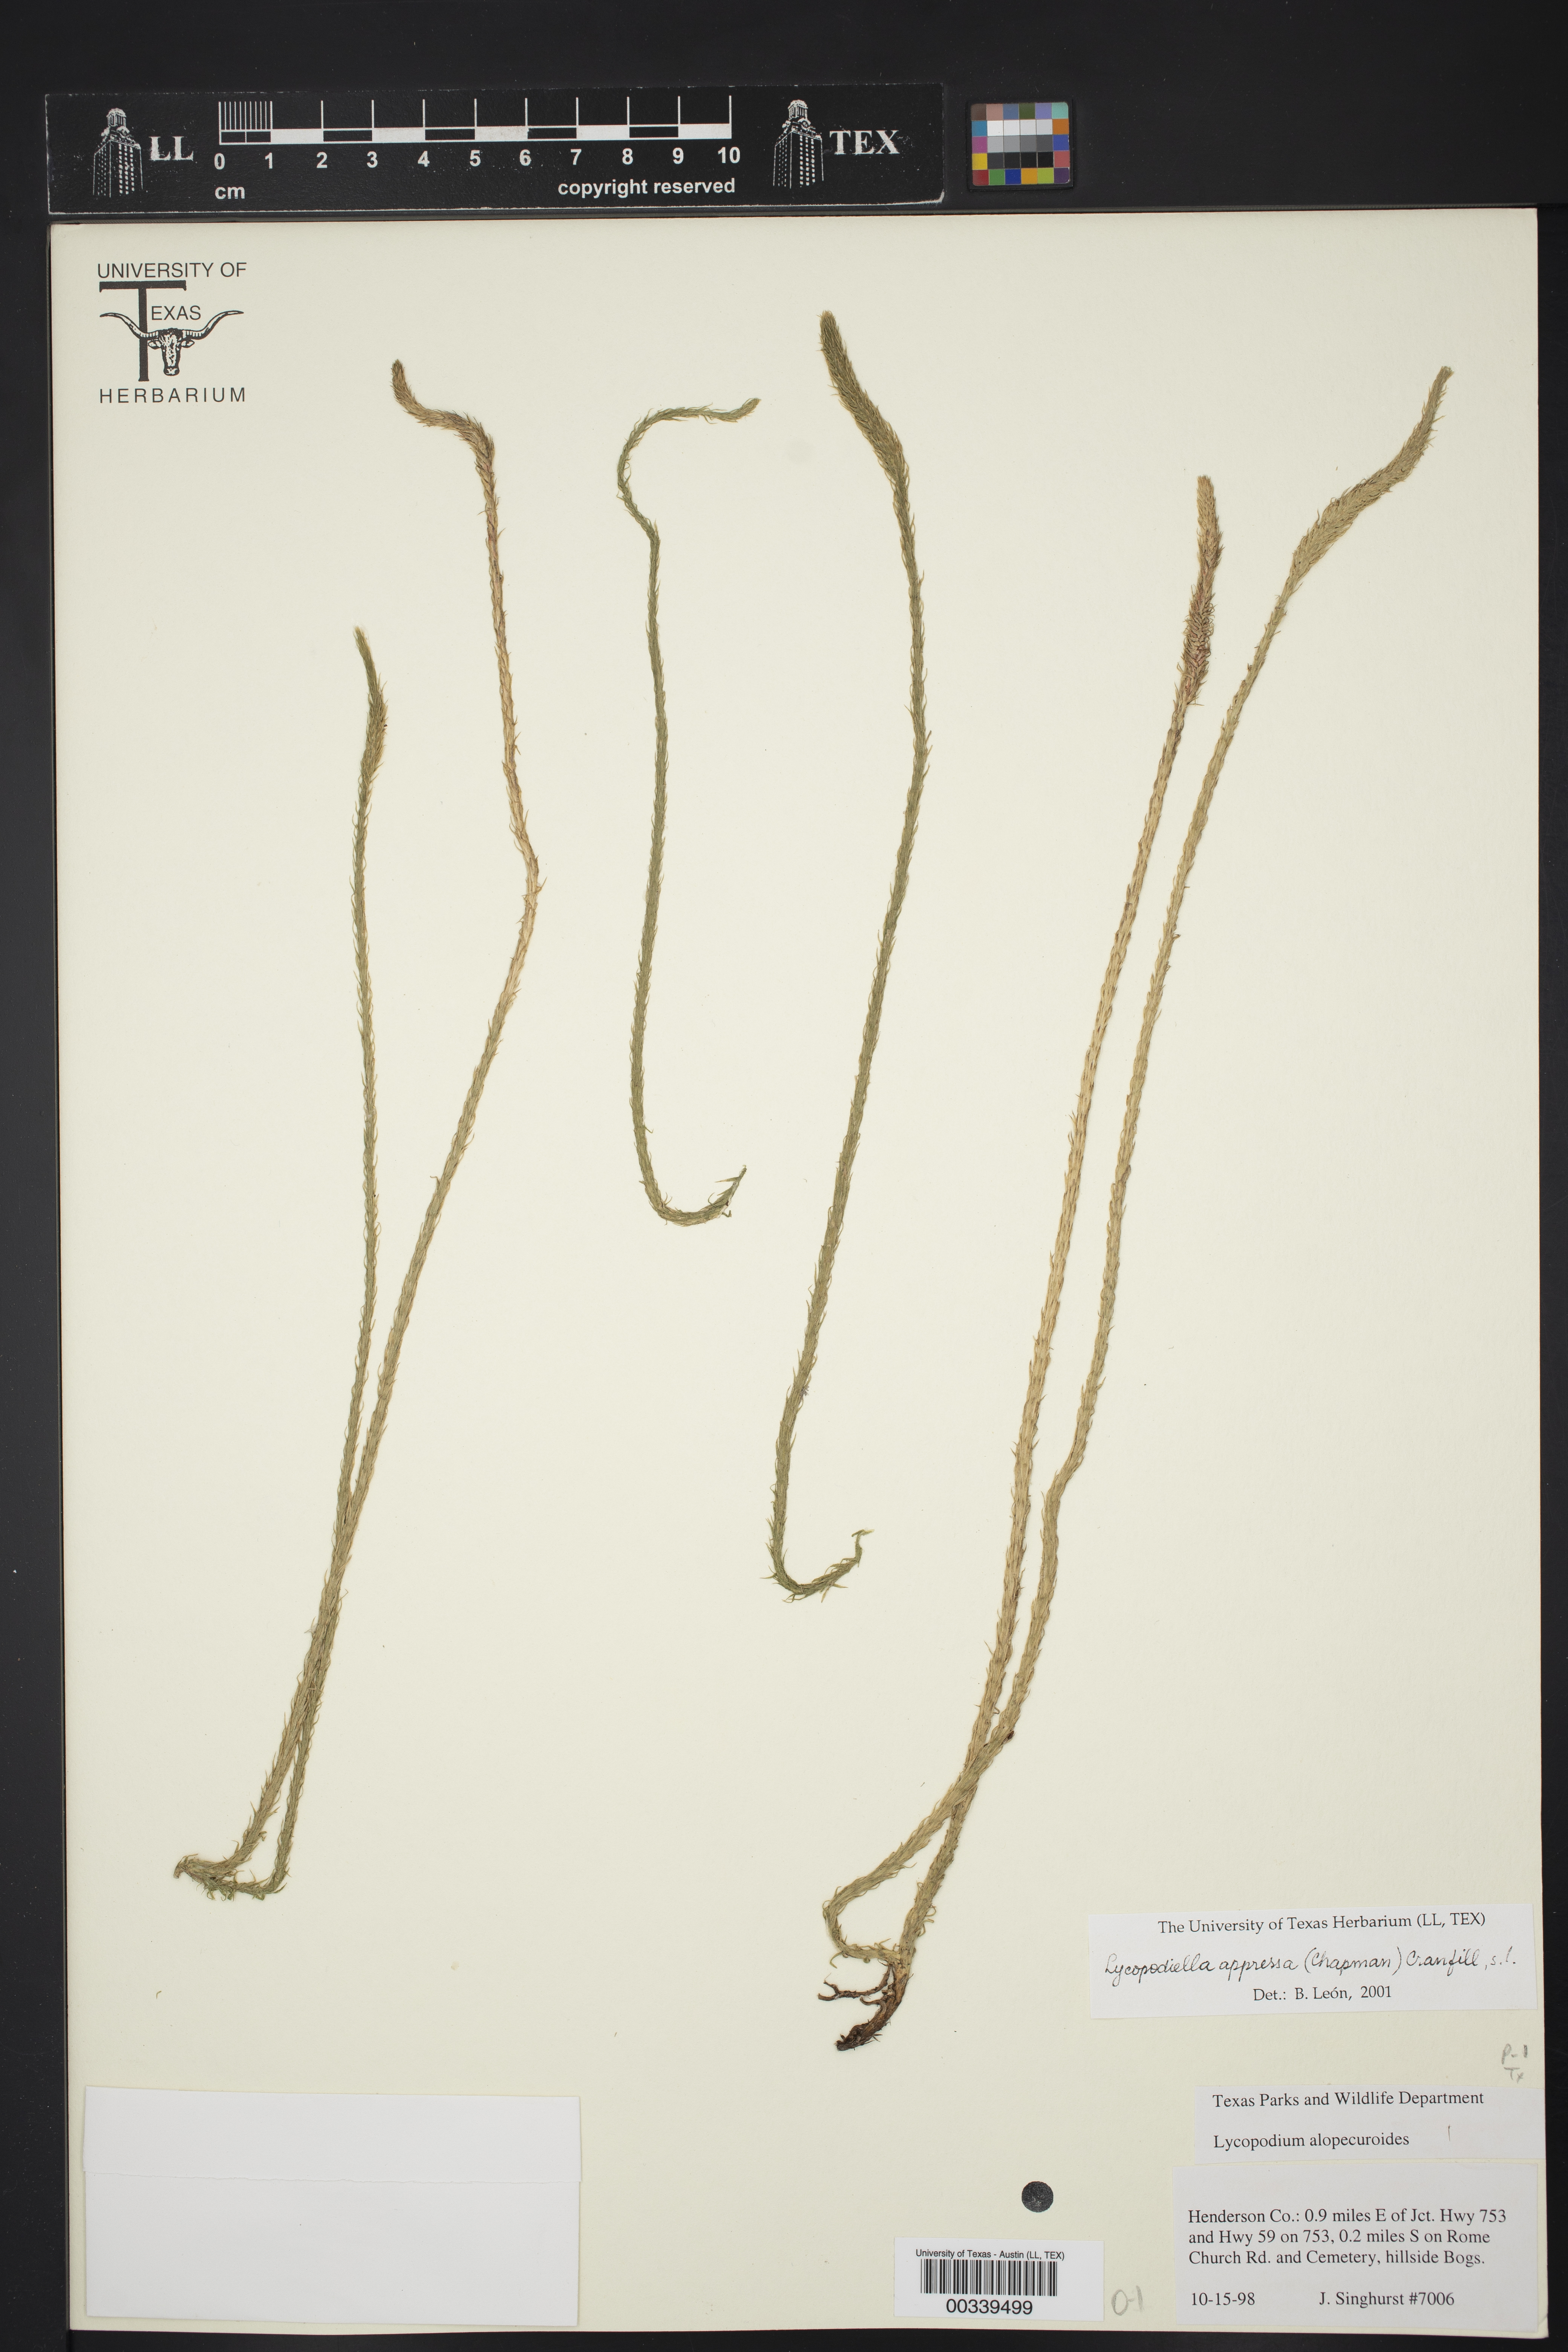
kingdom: Plantae
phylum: Tracheophyta
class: Lycopodiopsida
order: Lycopodiales
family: Lycopodiaceae
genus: Lycopodiella
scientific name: Lycopodiella appressa
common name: Appressed bog clubmoss
